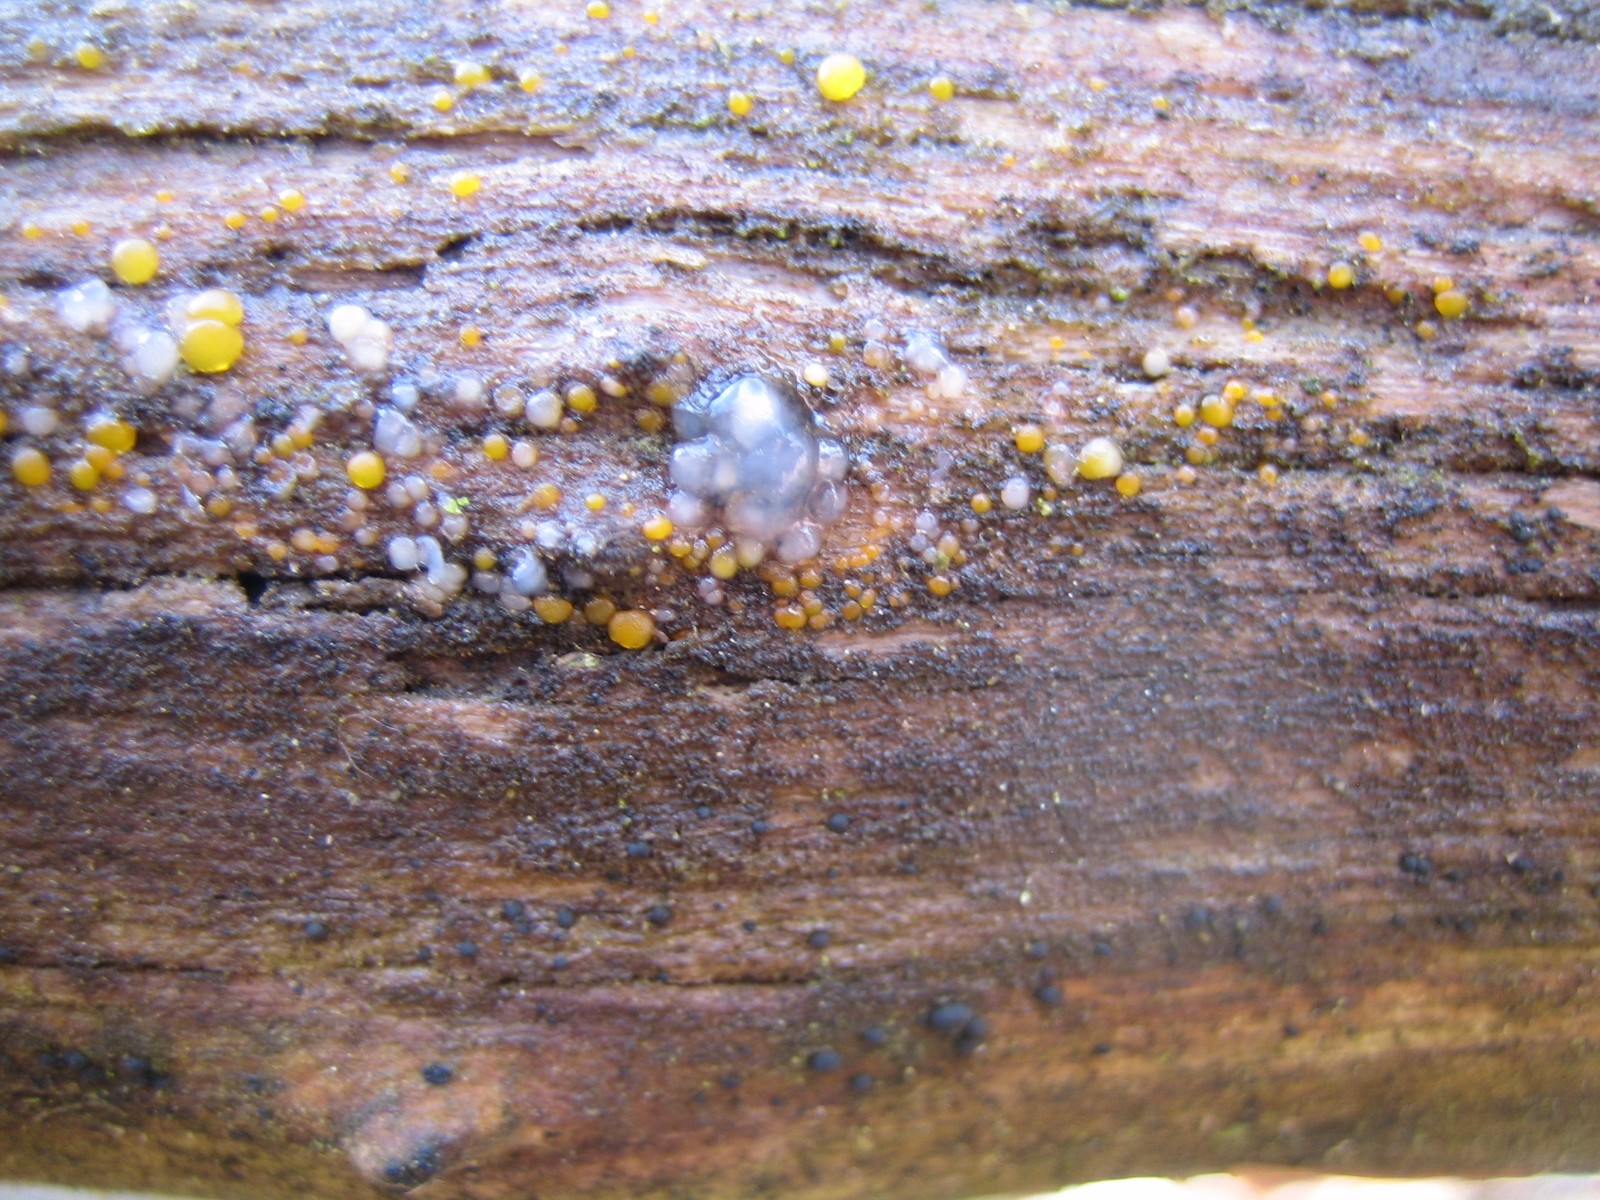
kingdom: Fungi
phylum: Basidiomycota
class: Agaricomycetes
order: Auriculariales
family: Hyaloriaceae
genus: Myxarium
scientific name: Myxarium nucleatum
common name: klar bævretop
